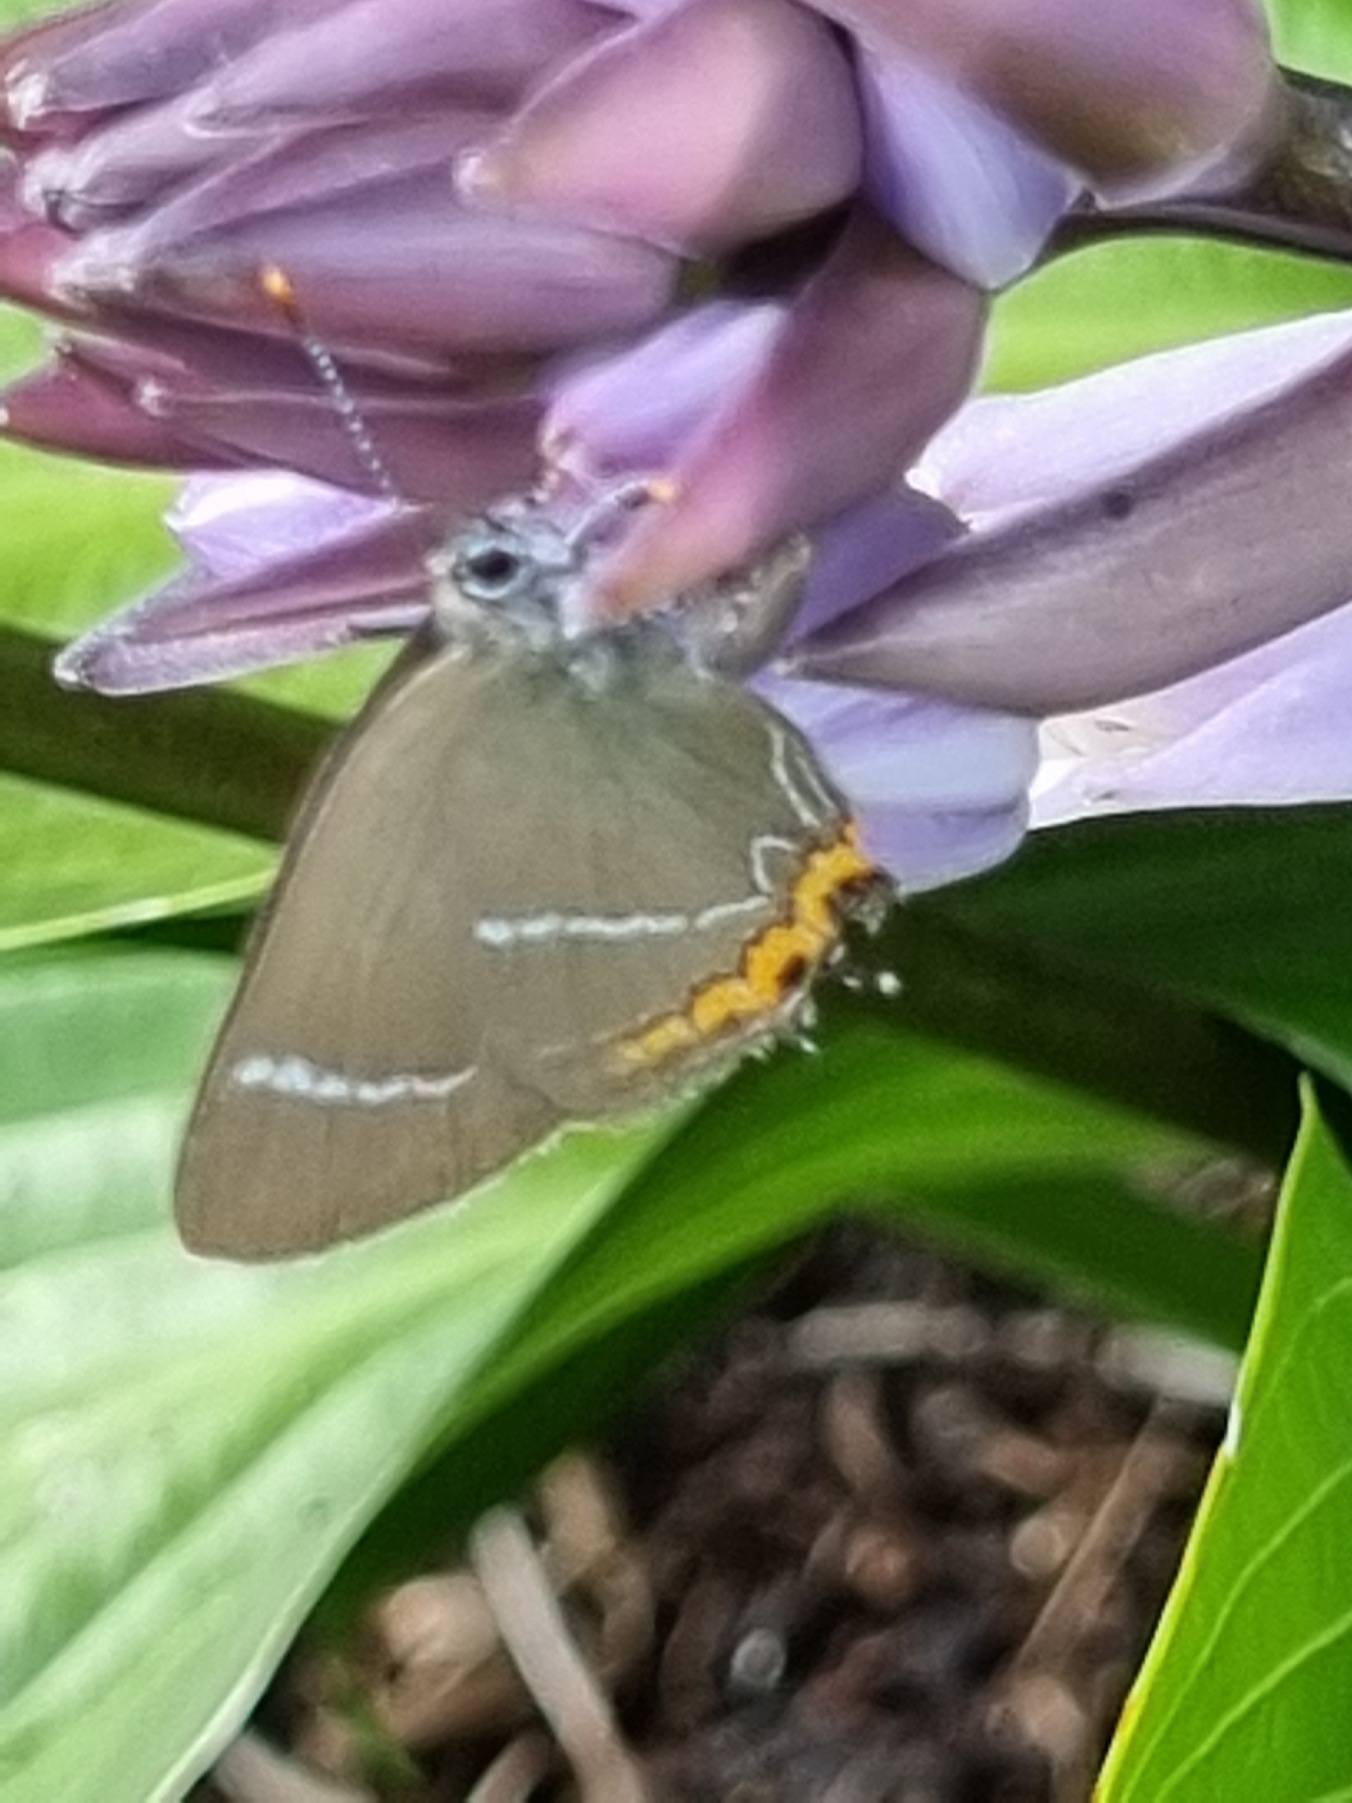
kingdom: Animalia
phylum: Arthropoda
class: Insecta
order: Lepidoptera
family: Lycaenidae
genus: Satyrium
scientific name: Satyrium w-album
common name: Det hvide W
